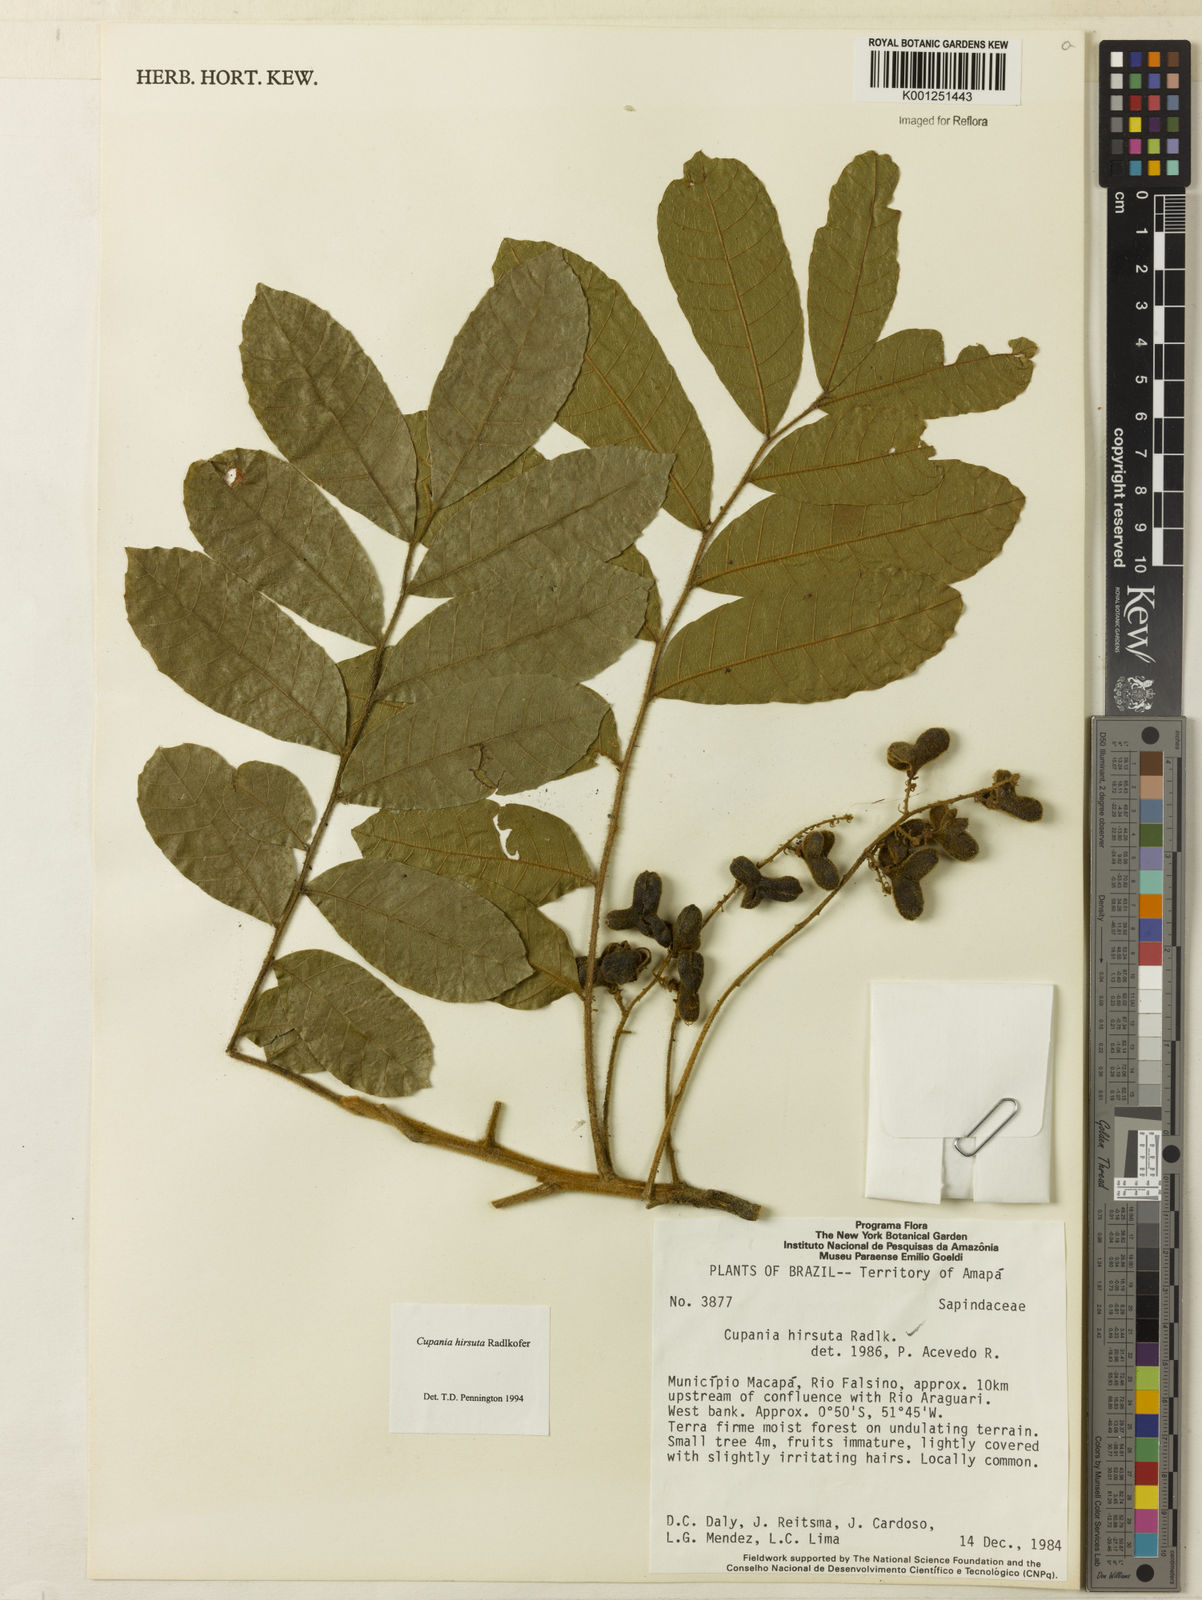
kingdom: Plantae
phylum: Tracheophyta
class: Magnoliopsida
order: Sapindales
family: Sapindaceae
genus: Cupania
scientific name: Cupania hirsuta
